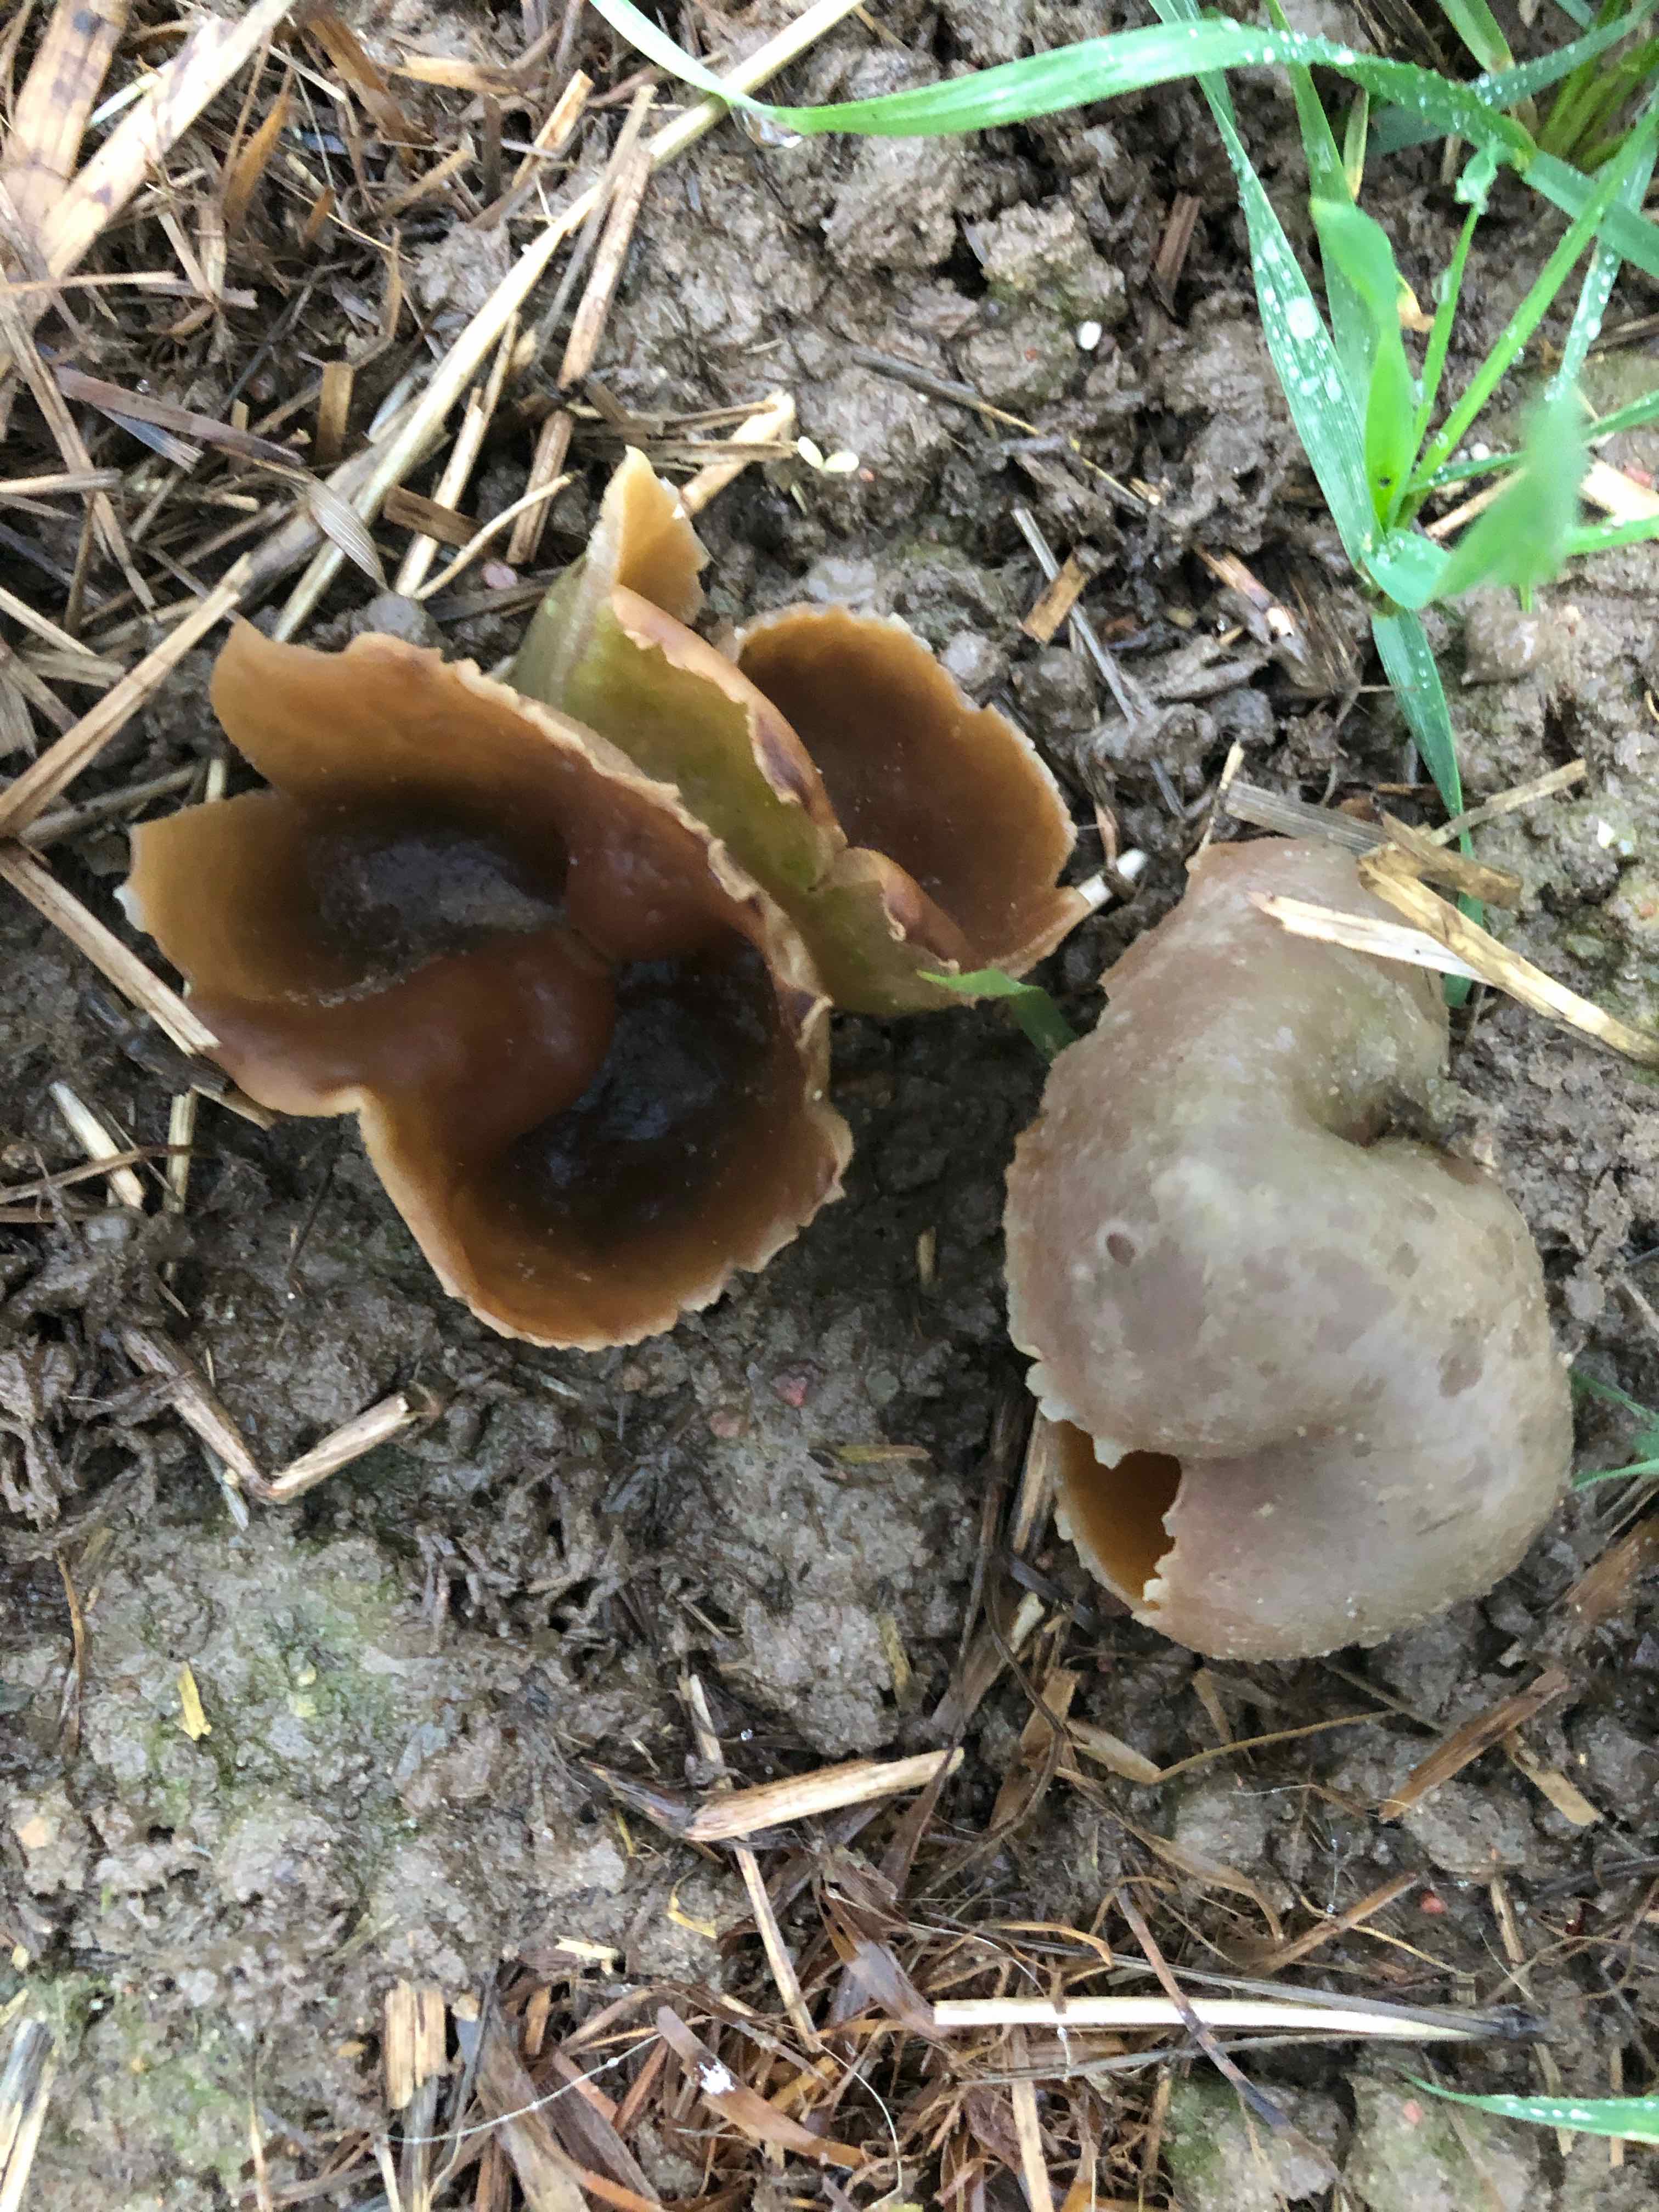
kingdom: Fungi
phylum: Ascomycota
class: Pezizomycetes
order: Pezizales
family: Pezizaceae
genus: Peziza
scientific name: Peziza vesiculosa
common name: blære-bægersvamp
